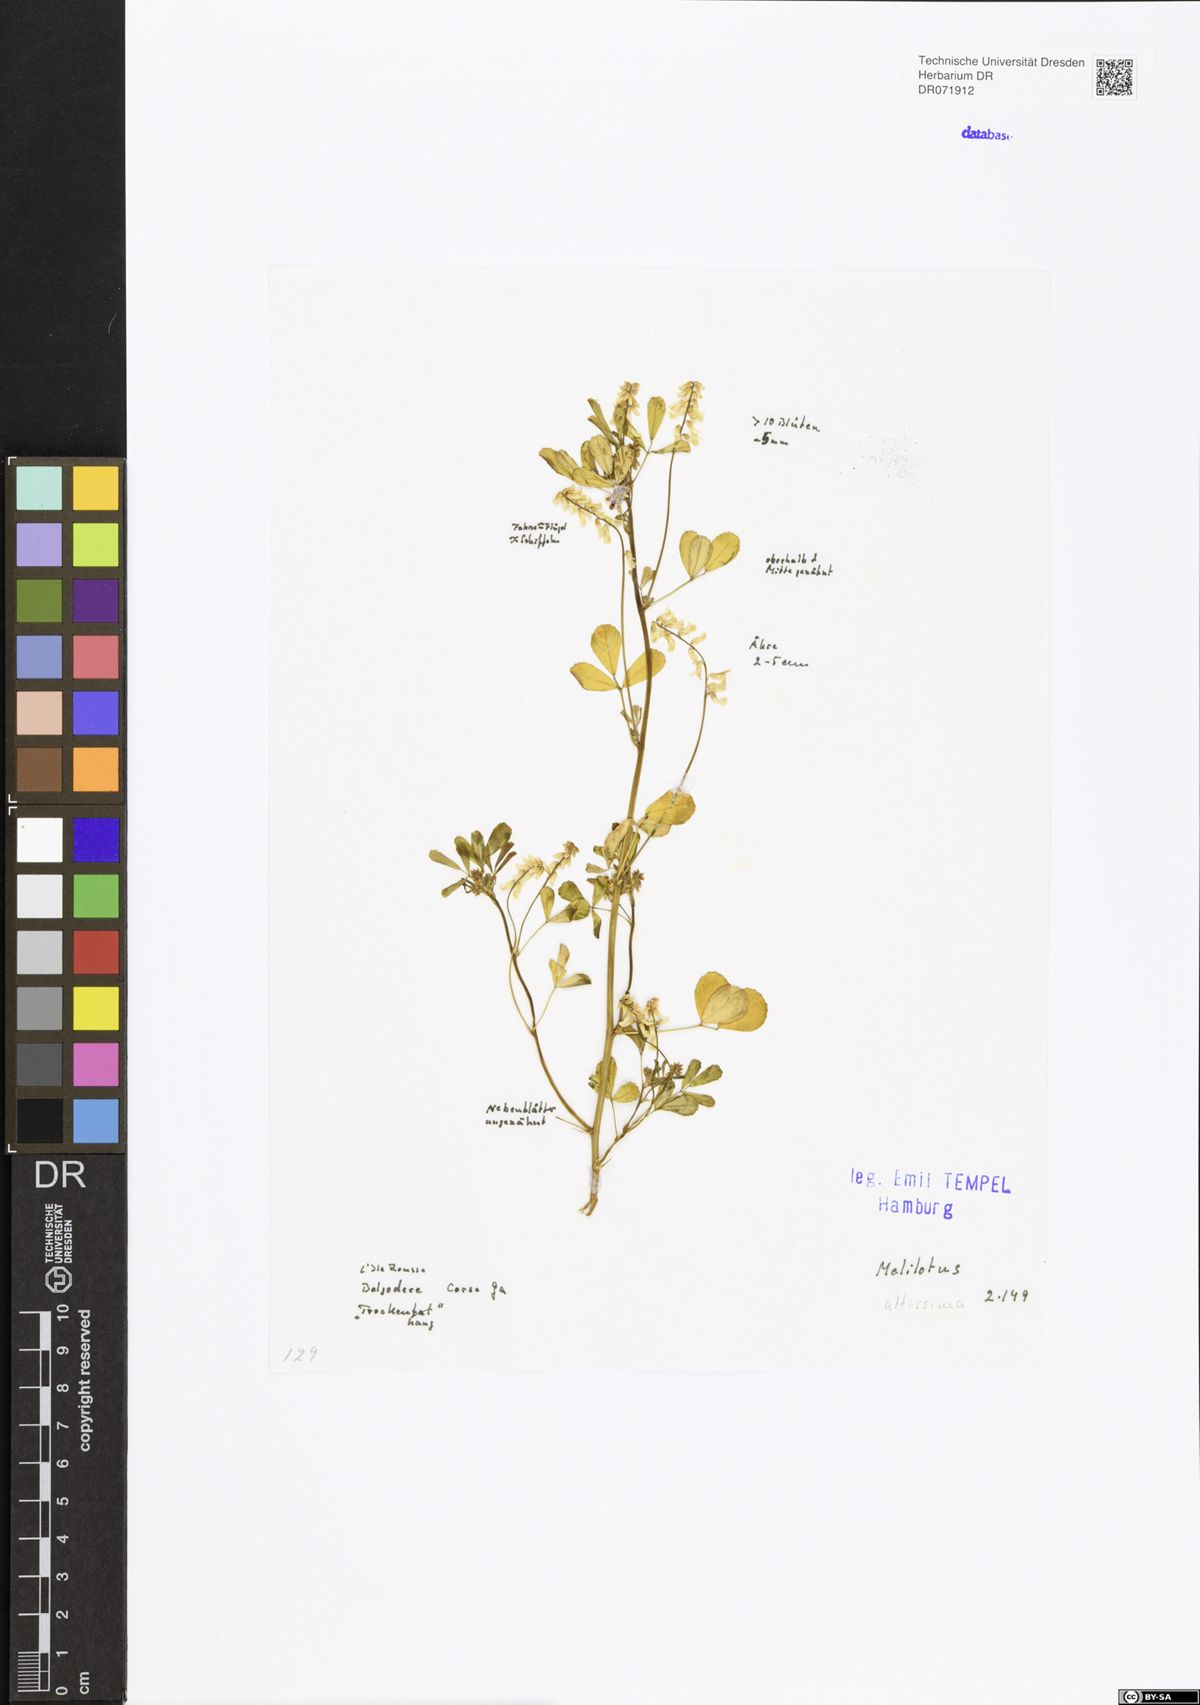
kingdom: Plantae
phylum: Tracheophyta
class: Magnoliopsida
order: Fabales
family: Fabaceae
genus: Melilotus
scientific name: Melilotus altissimus
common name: Tall melilot
